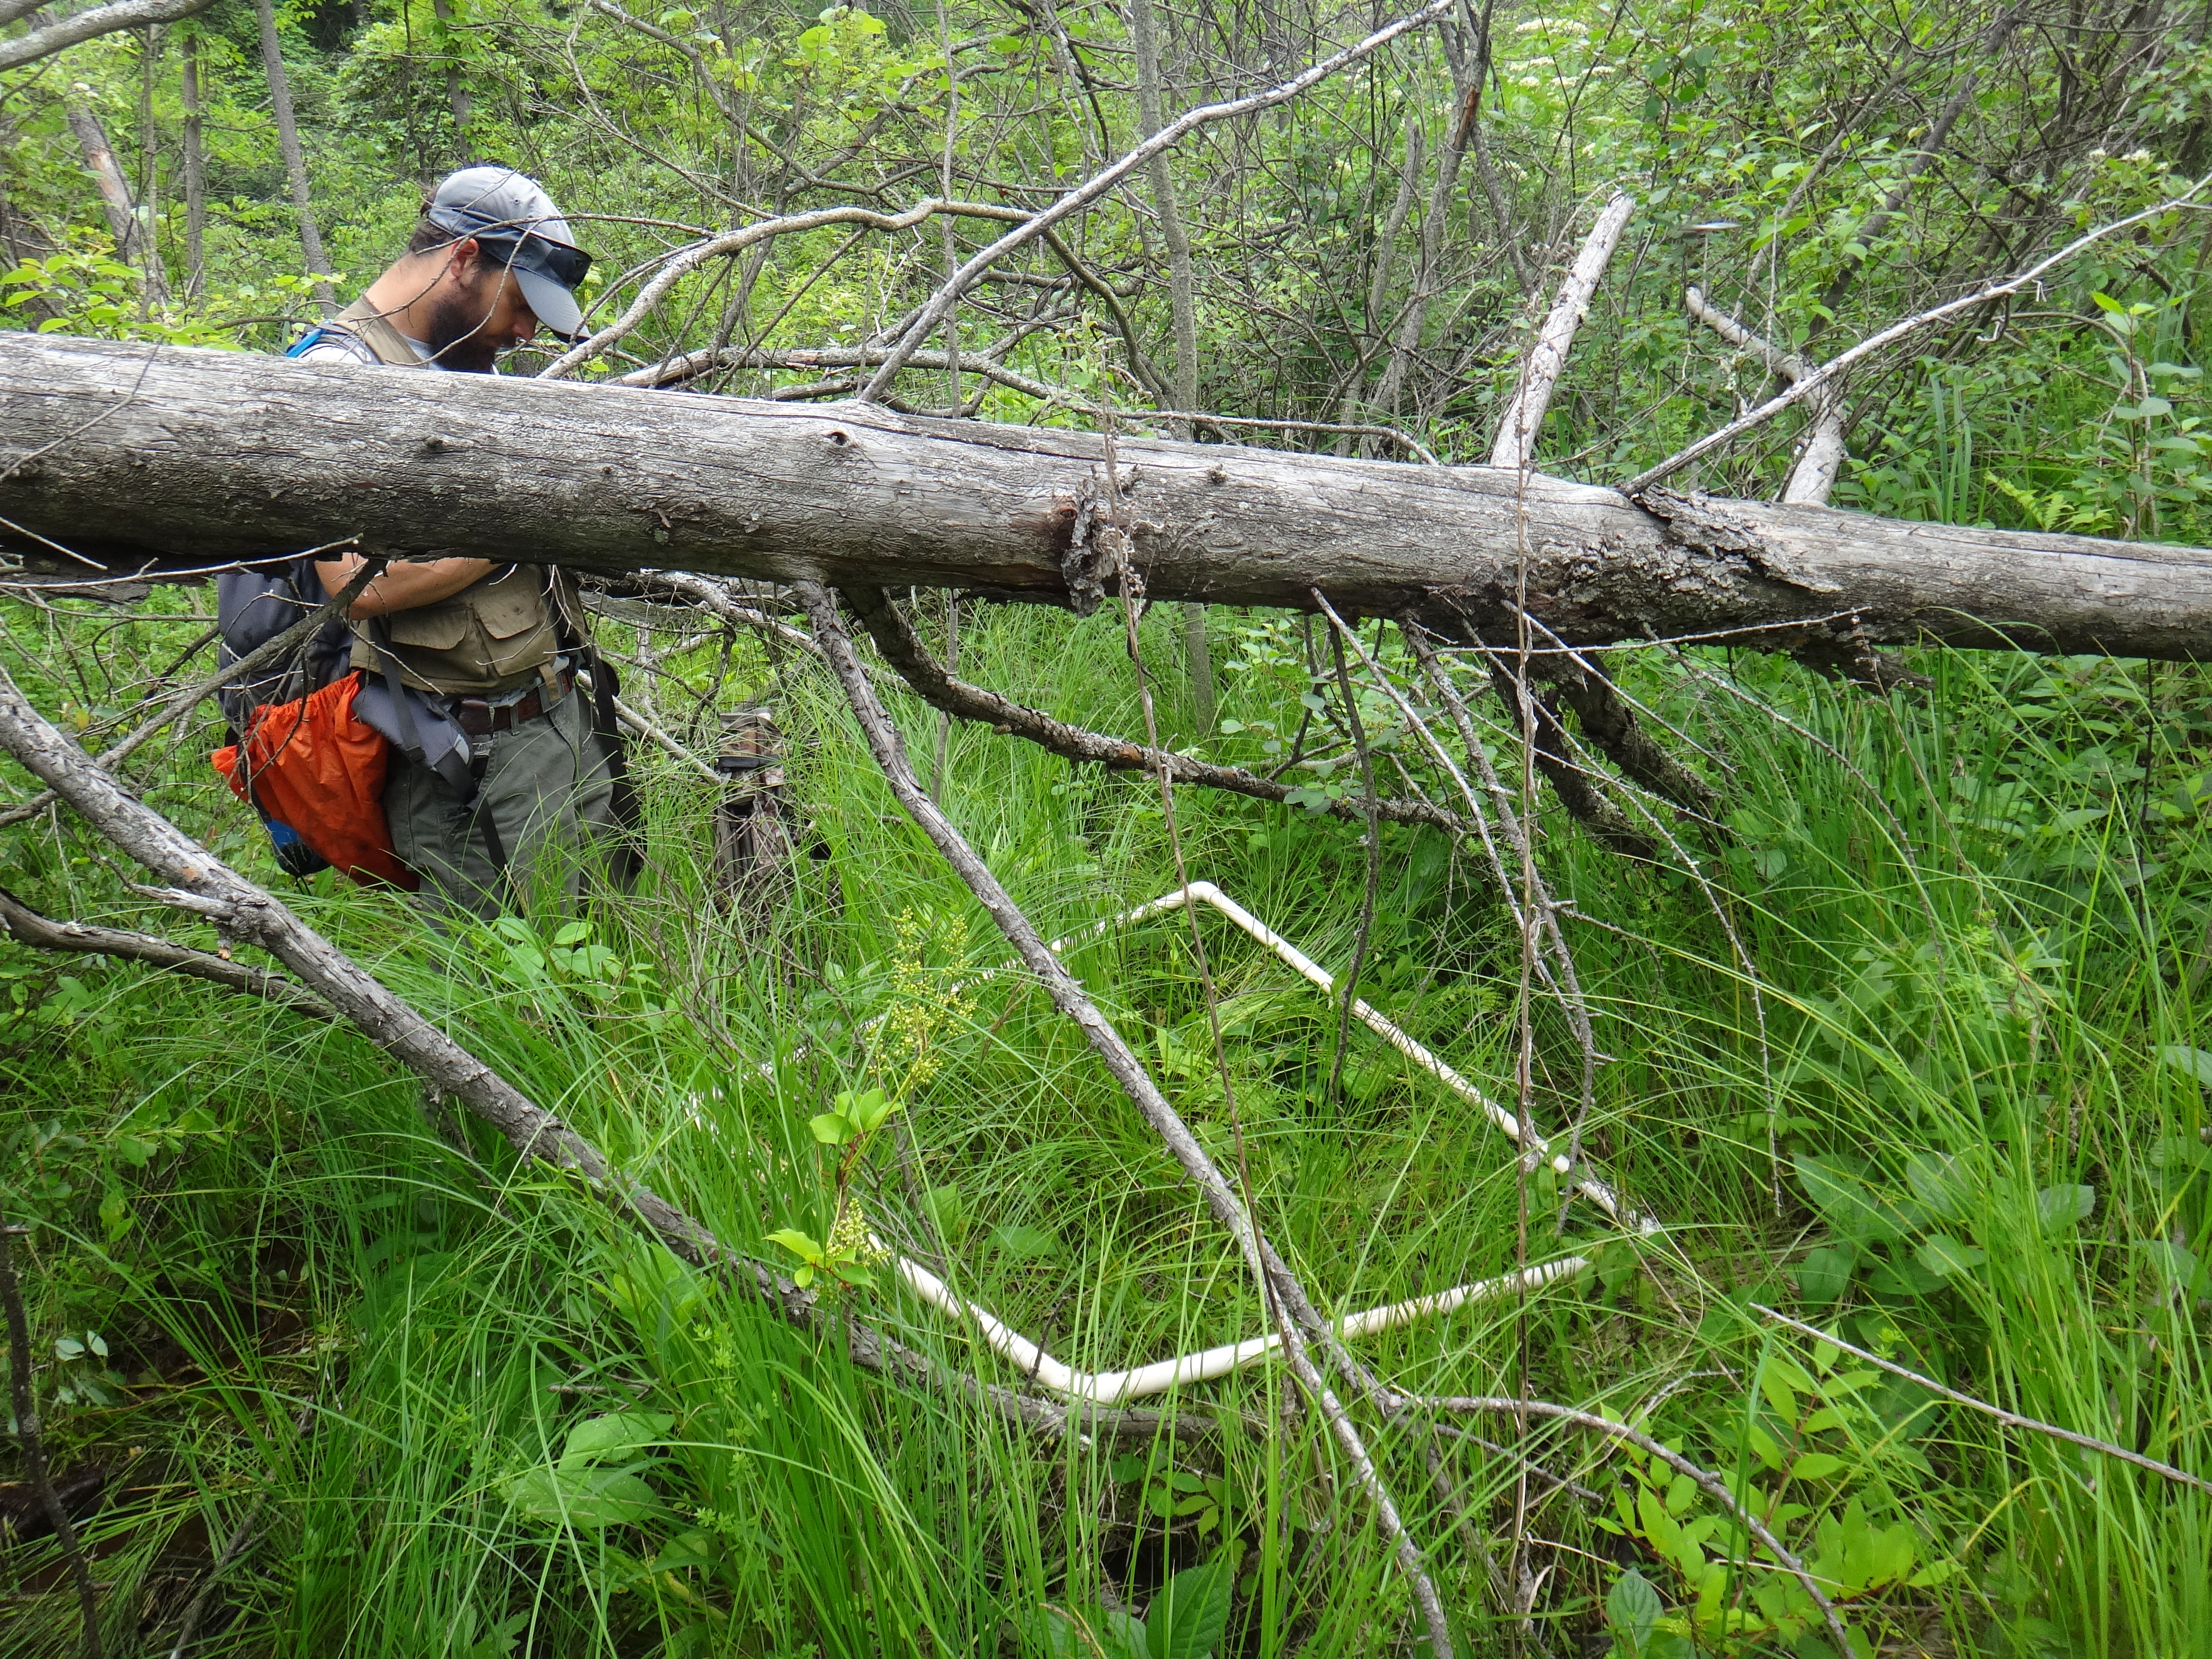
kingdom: Plantae
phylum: Tracheophyta
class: Magnoliopsida
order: Asterales
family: Asteraceae
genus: Solidago
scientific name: Solidago rugosa
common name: Rough-stemmed goldenrod
